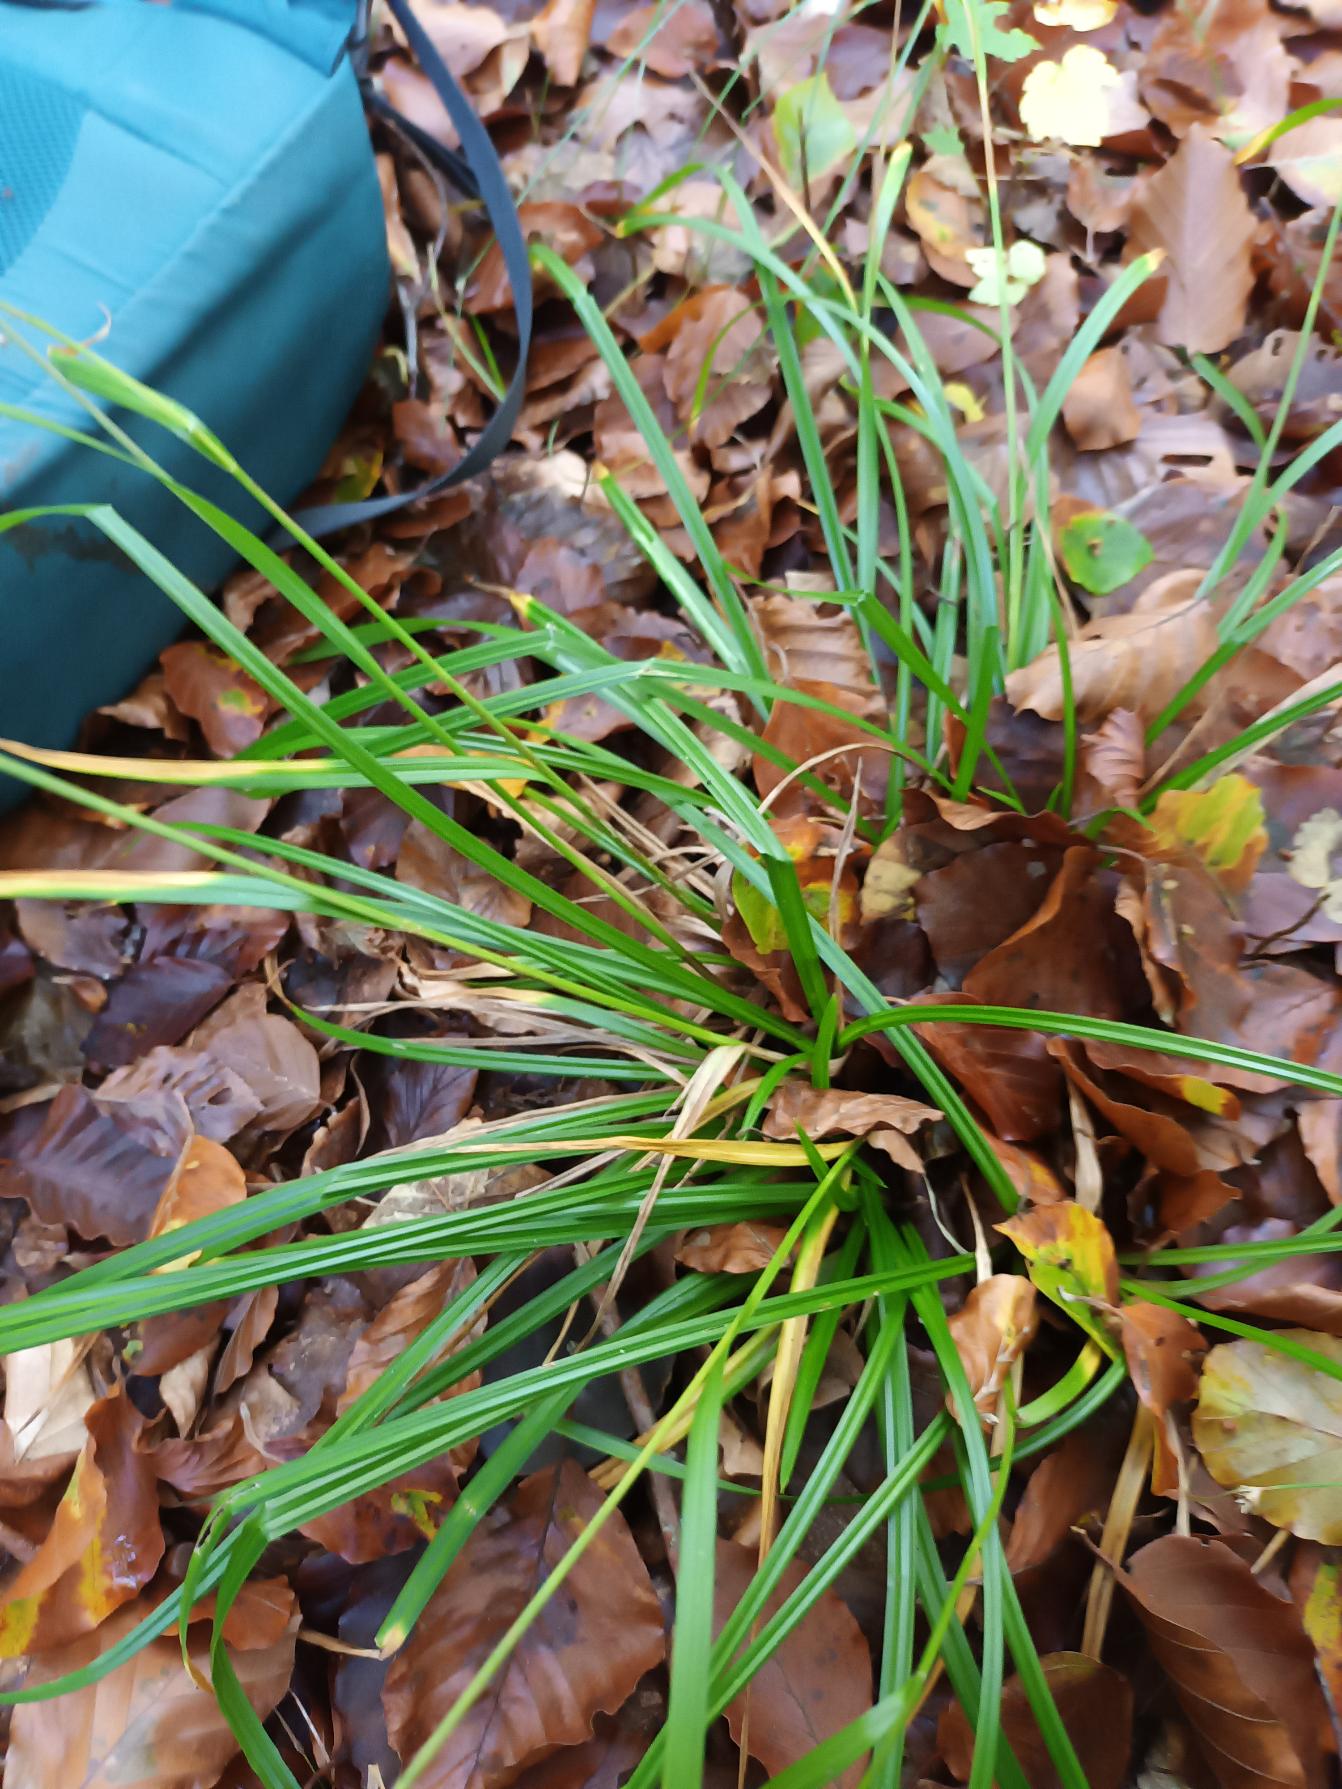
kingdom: Plantae
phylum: Tracheophyta
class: Liliopsida
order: Poales
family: Cyperaceae
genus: Carex
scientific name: Carex sylvatica
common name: Skov-star
